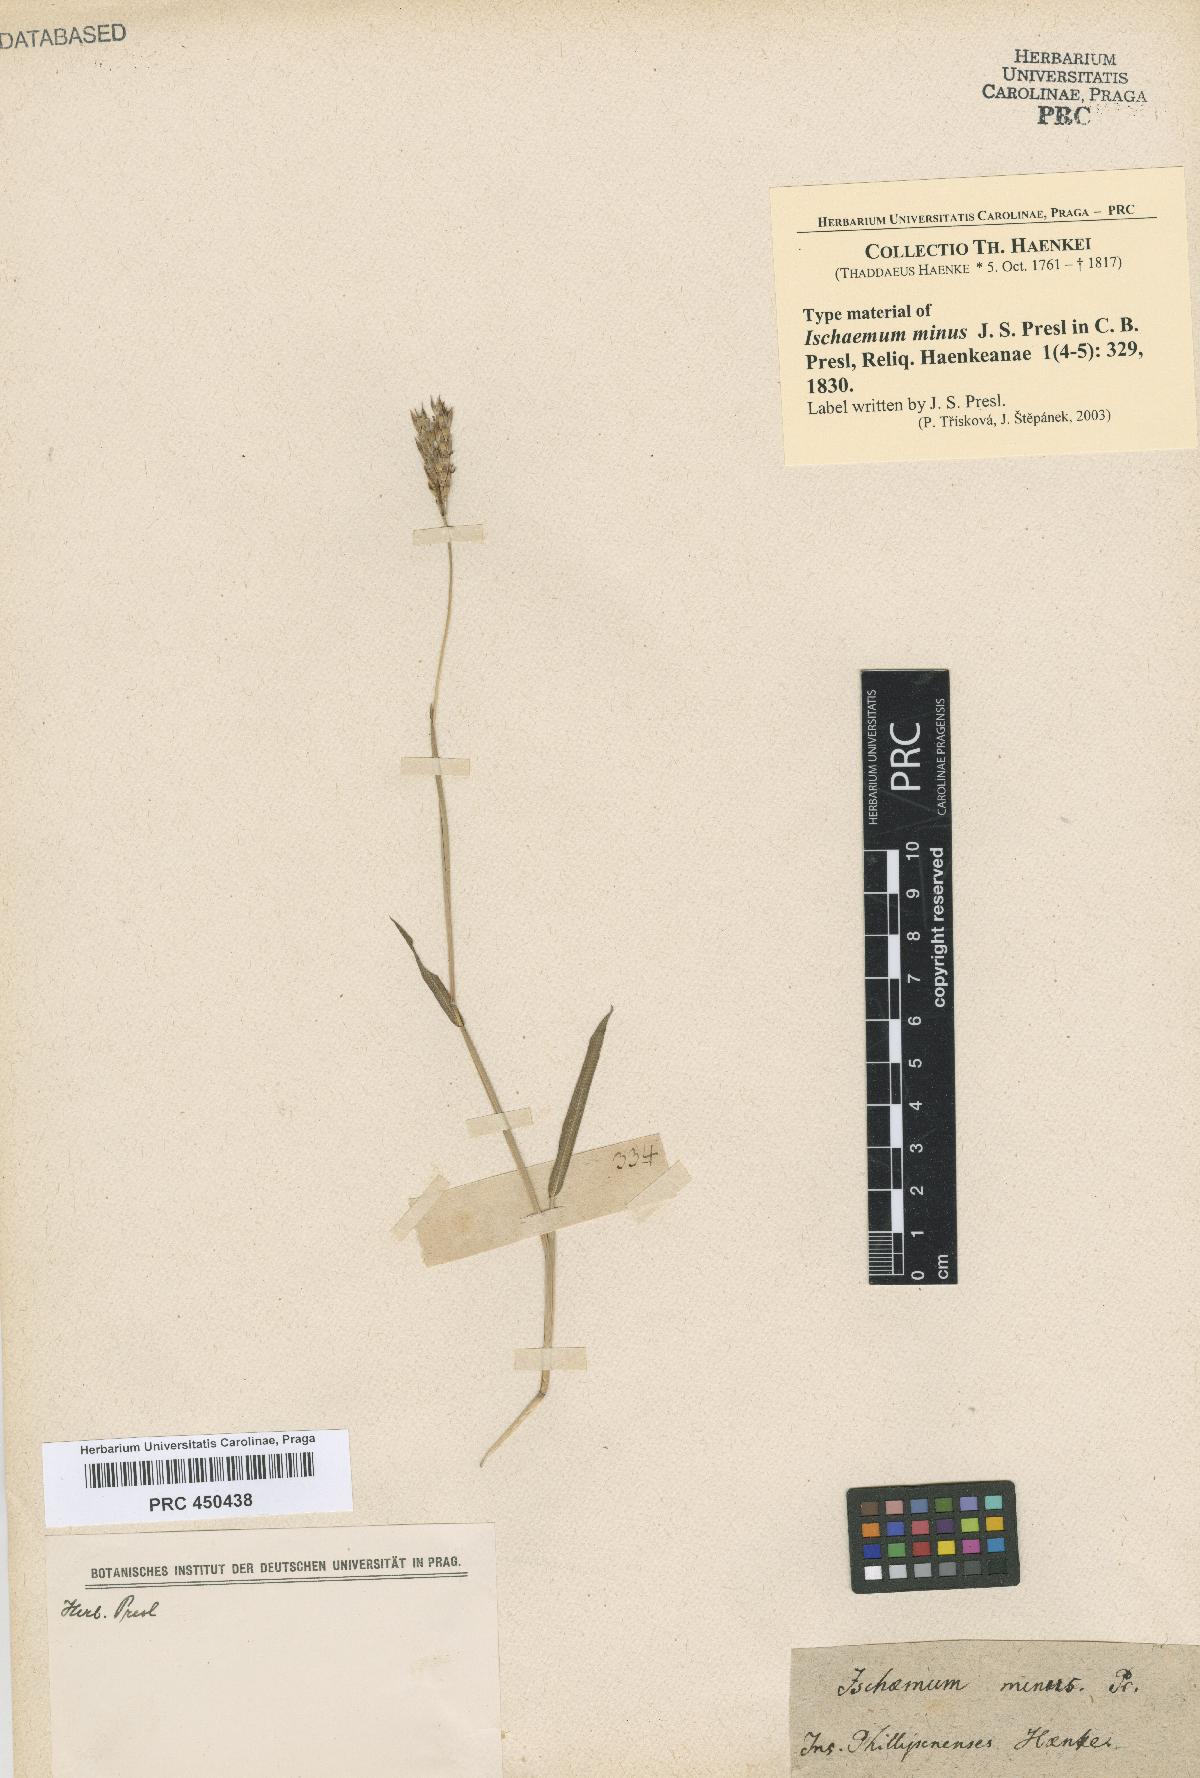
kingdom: Plantae
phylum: Tracheophyta
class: Liliopsida
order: Poales
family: Poaceae
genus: Ischaemum
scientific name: Ischaemum minus
